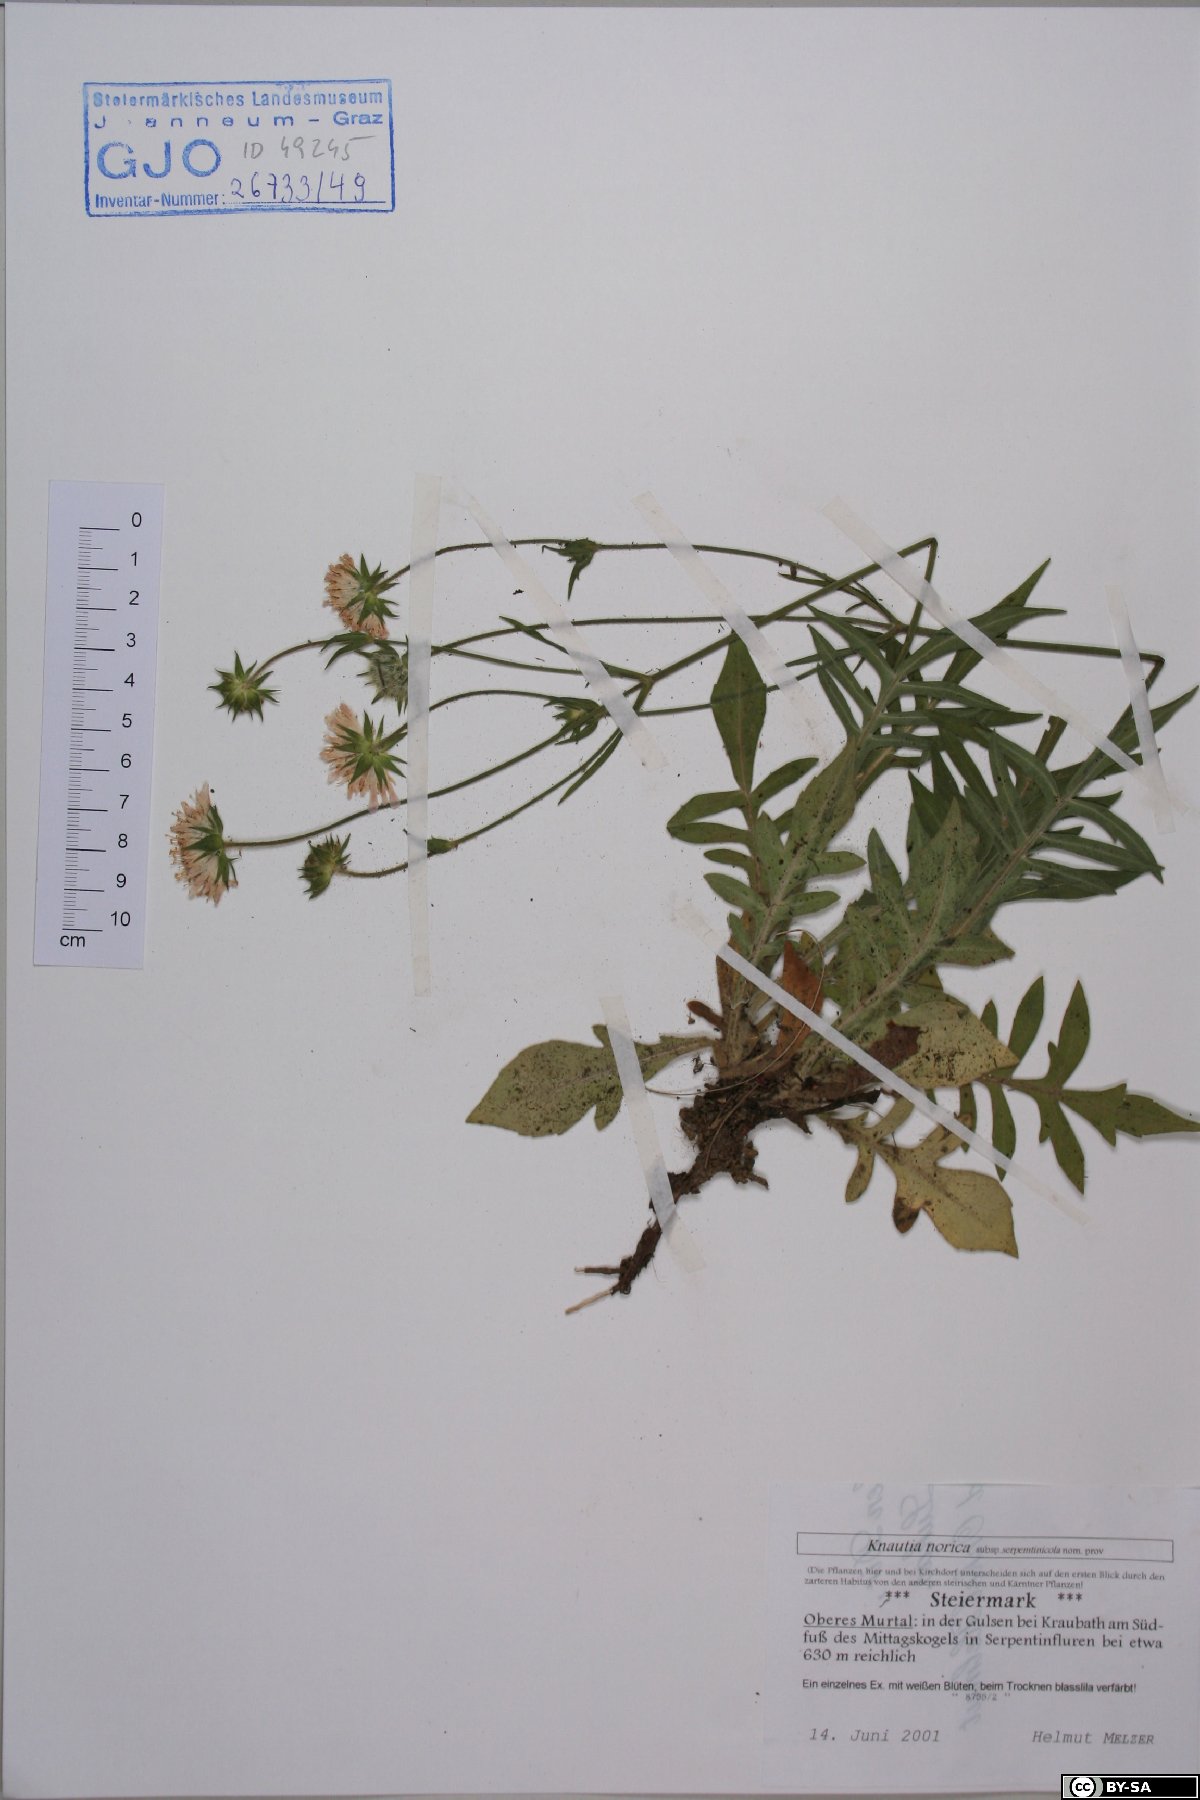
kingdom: Plantae
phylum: Tracheophyta
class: Magnoliopsida
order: Dipsacales
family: Caprifoliaceae
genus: Knautia
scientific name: Knautia norica
